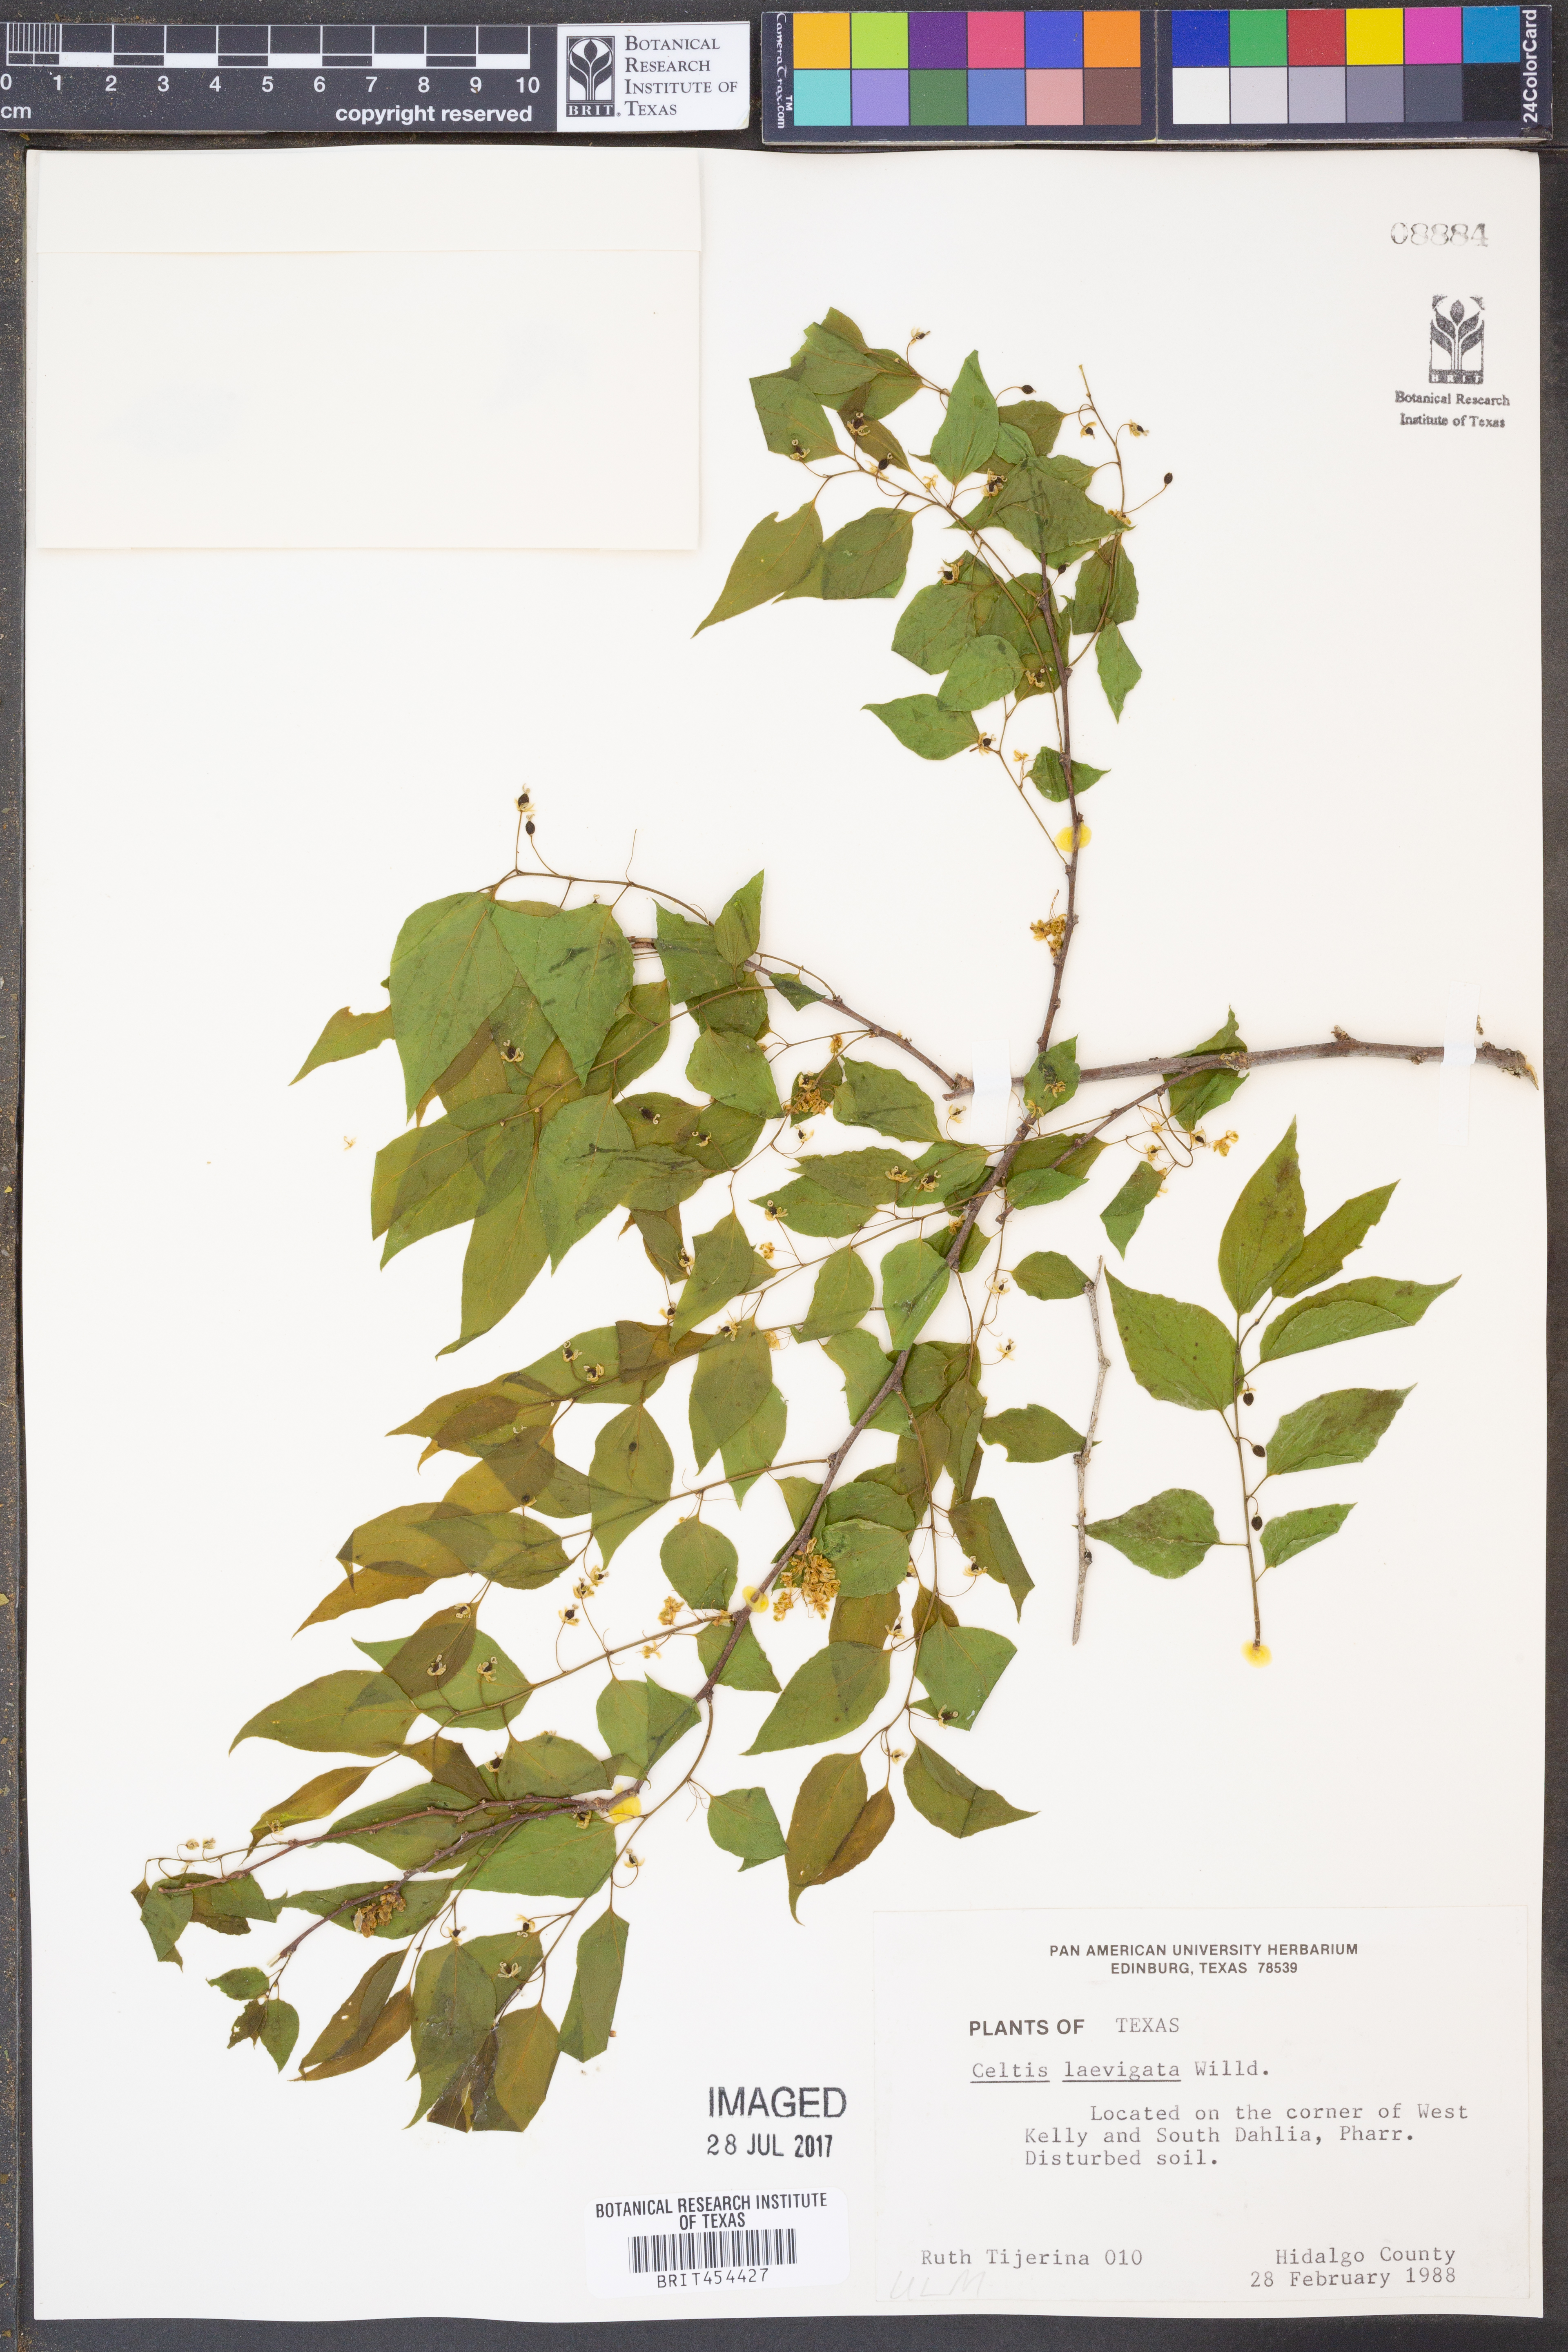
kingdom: Plantae
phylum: Tracheophyta
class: Magnoliopsida
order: Rosales
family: Cannabaceae
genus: Celtis
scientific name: Celtis laevigata
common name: Sugarberry
